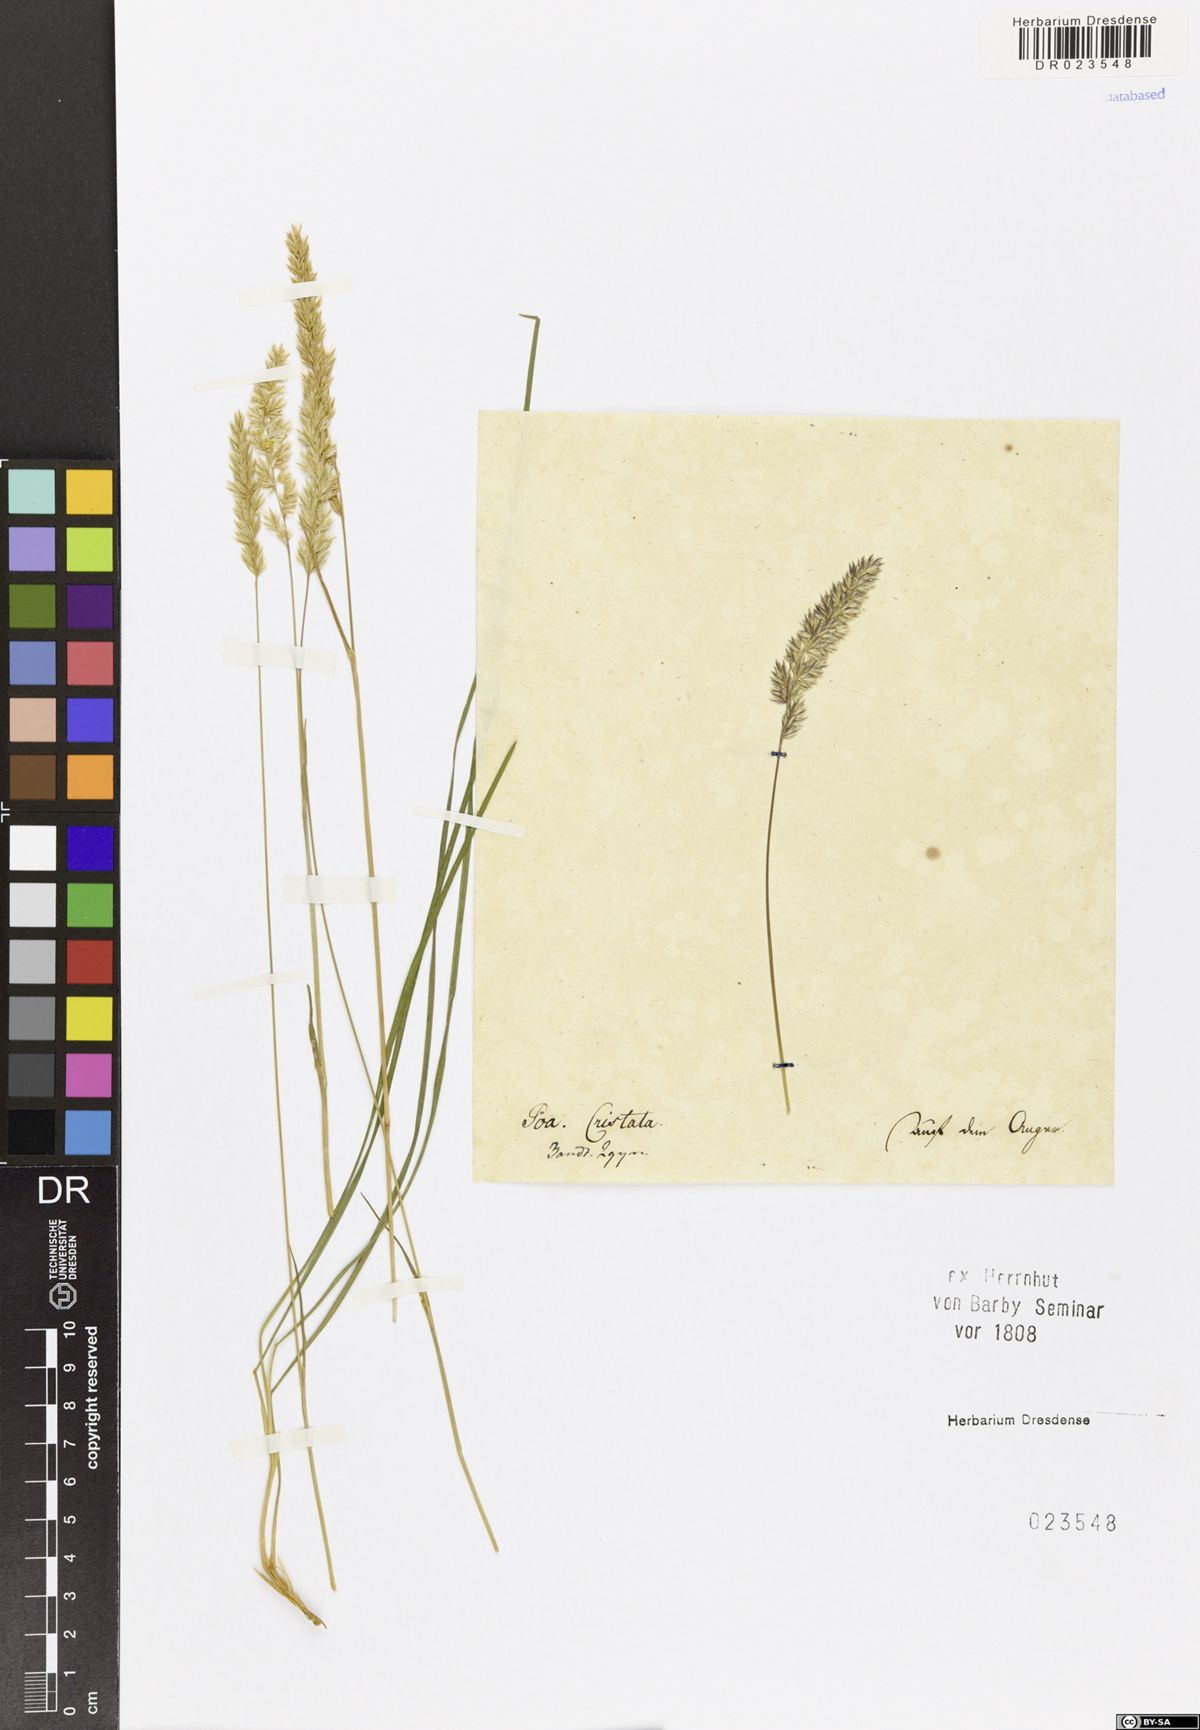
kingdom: Plantae
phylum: Tracheophyta
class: Liliopsida
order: Poales
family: Poaceae
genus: Koeleria
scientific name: Koeleria macrantha
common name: Crested hair-grass
